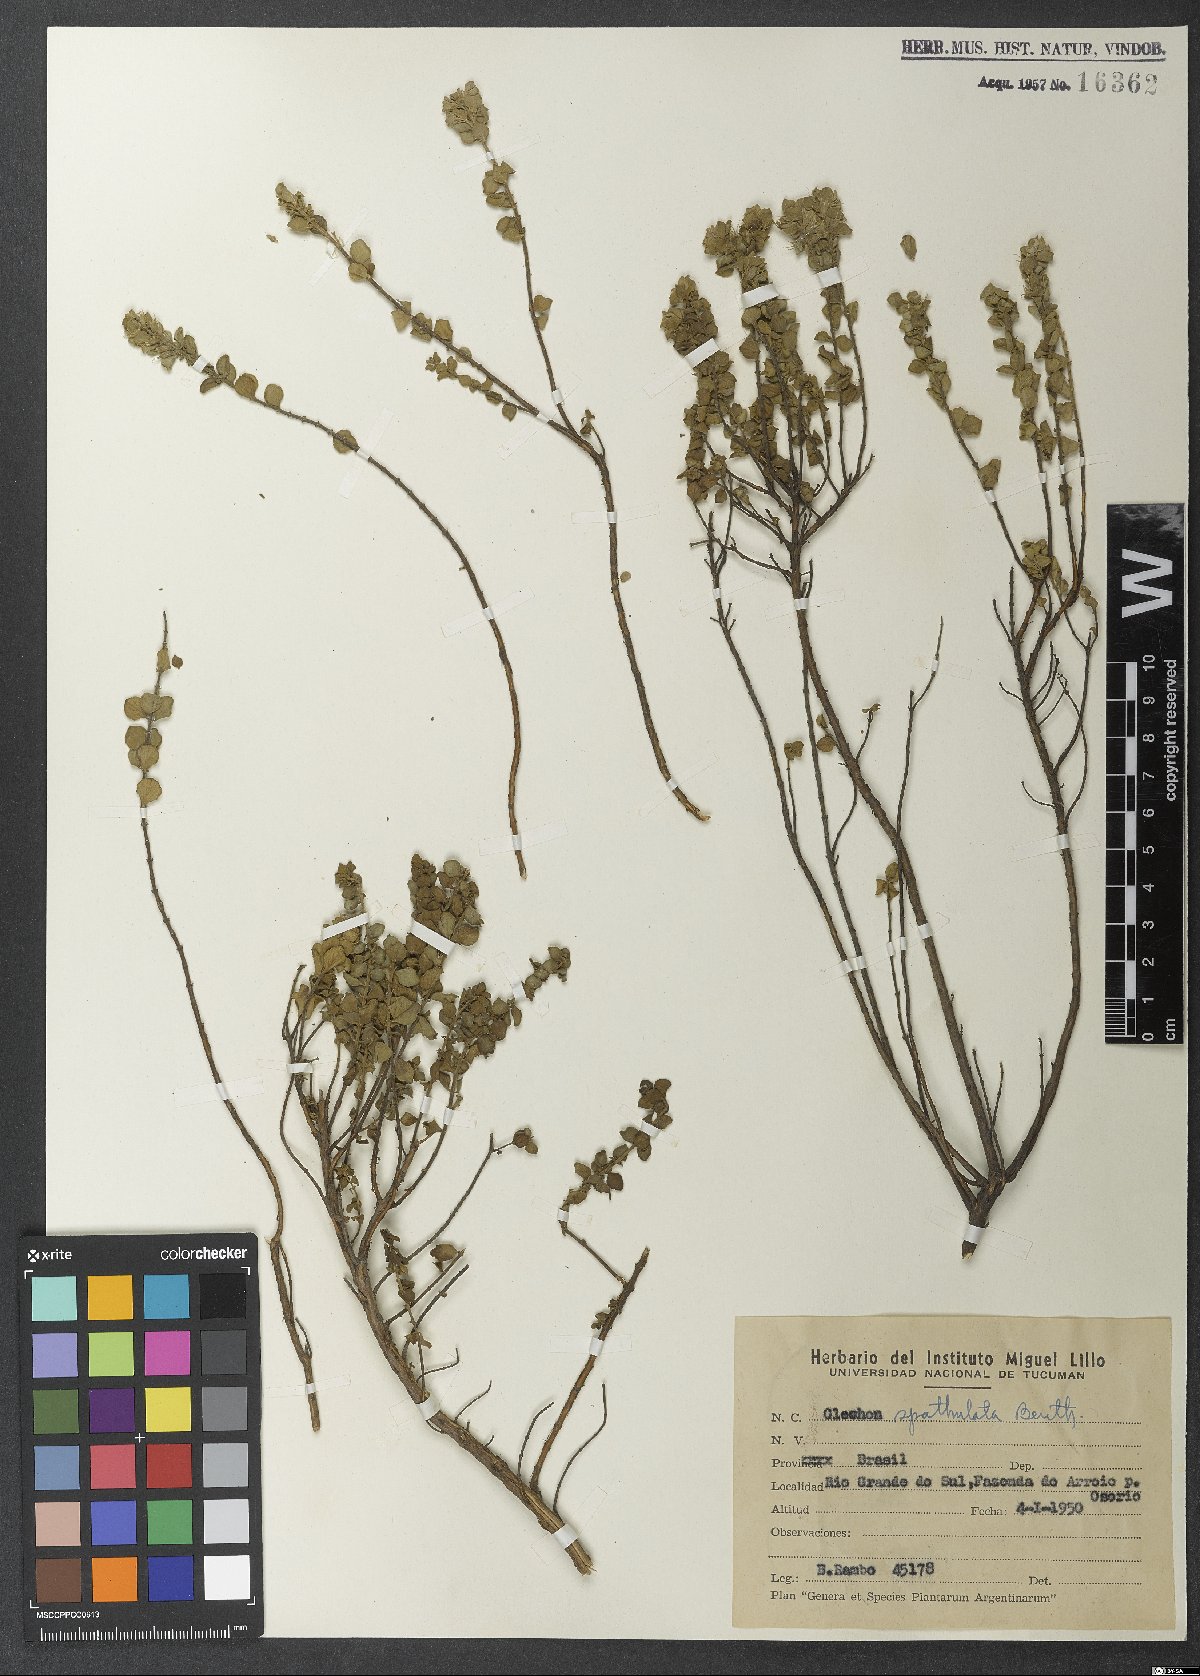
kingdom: Plantae
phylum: Tracheophyta
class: Magnoliopsida
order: Lamiales
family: Lamiaceae
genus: Glechon
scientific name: Glechon thymoides
